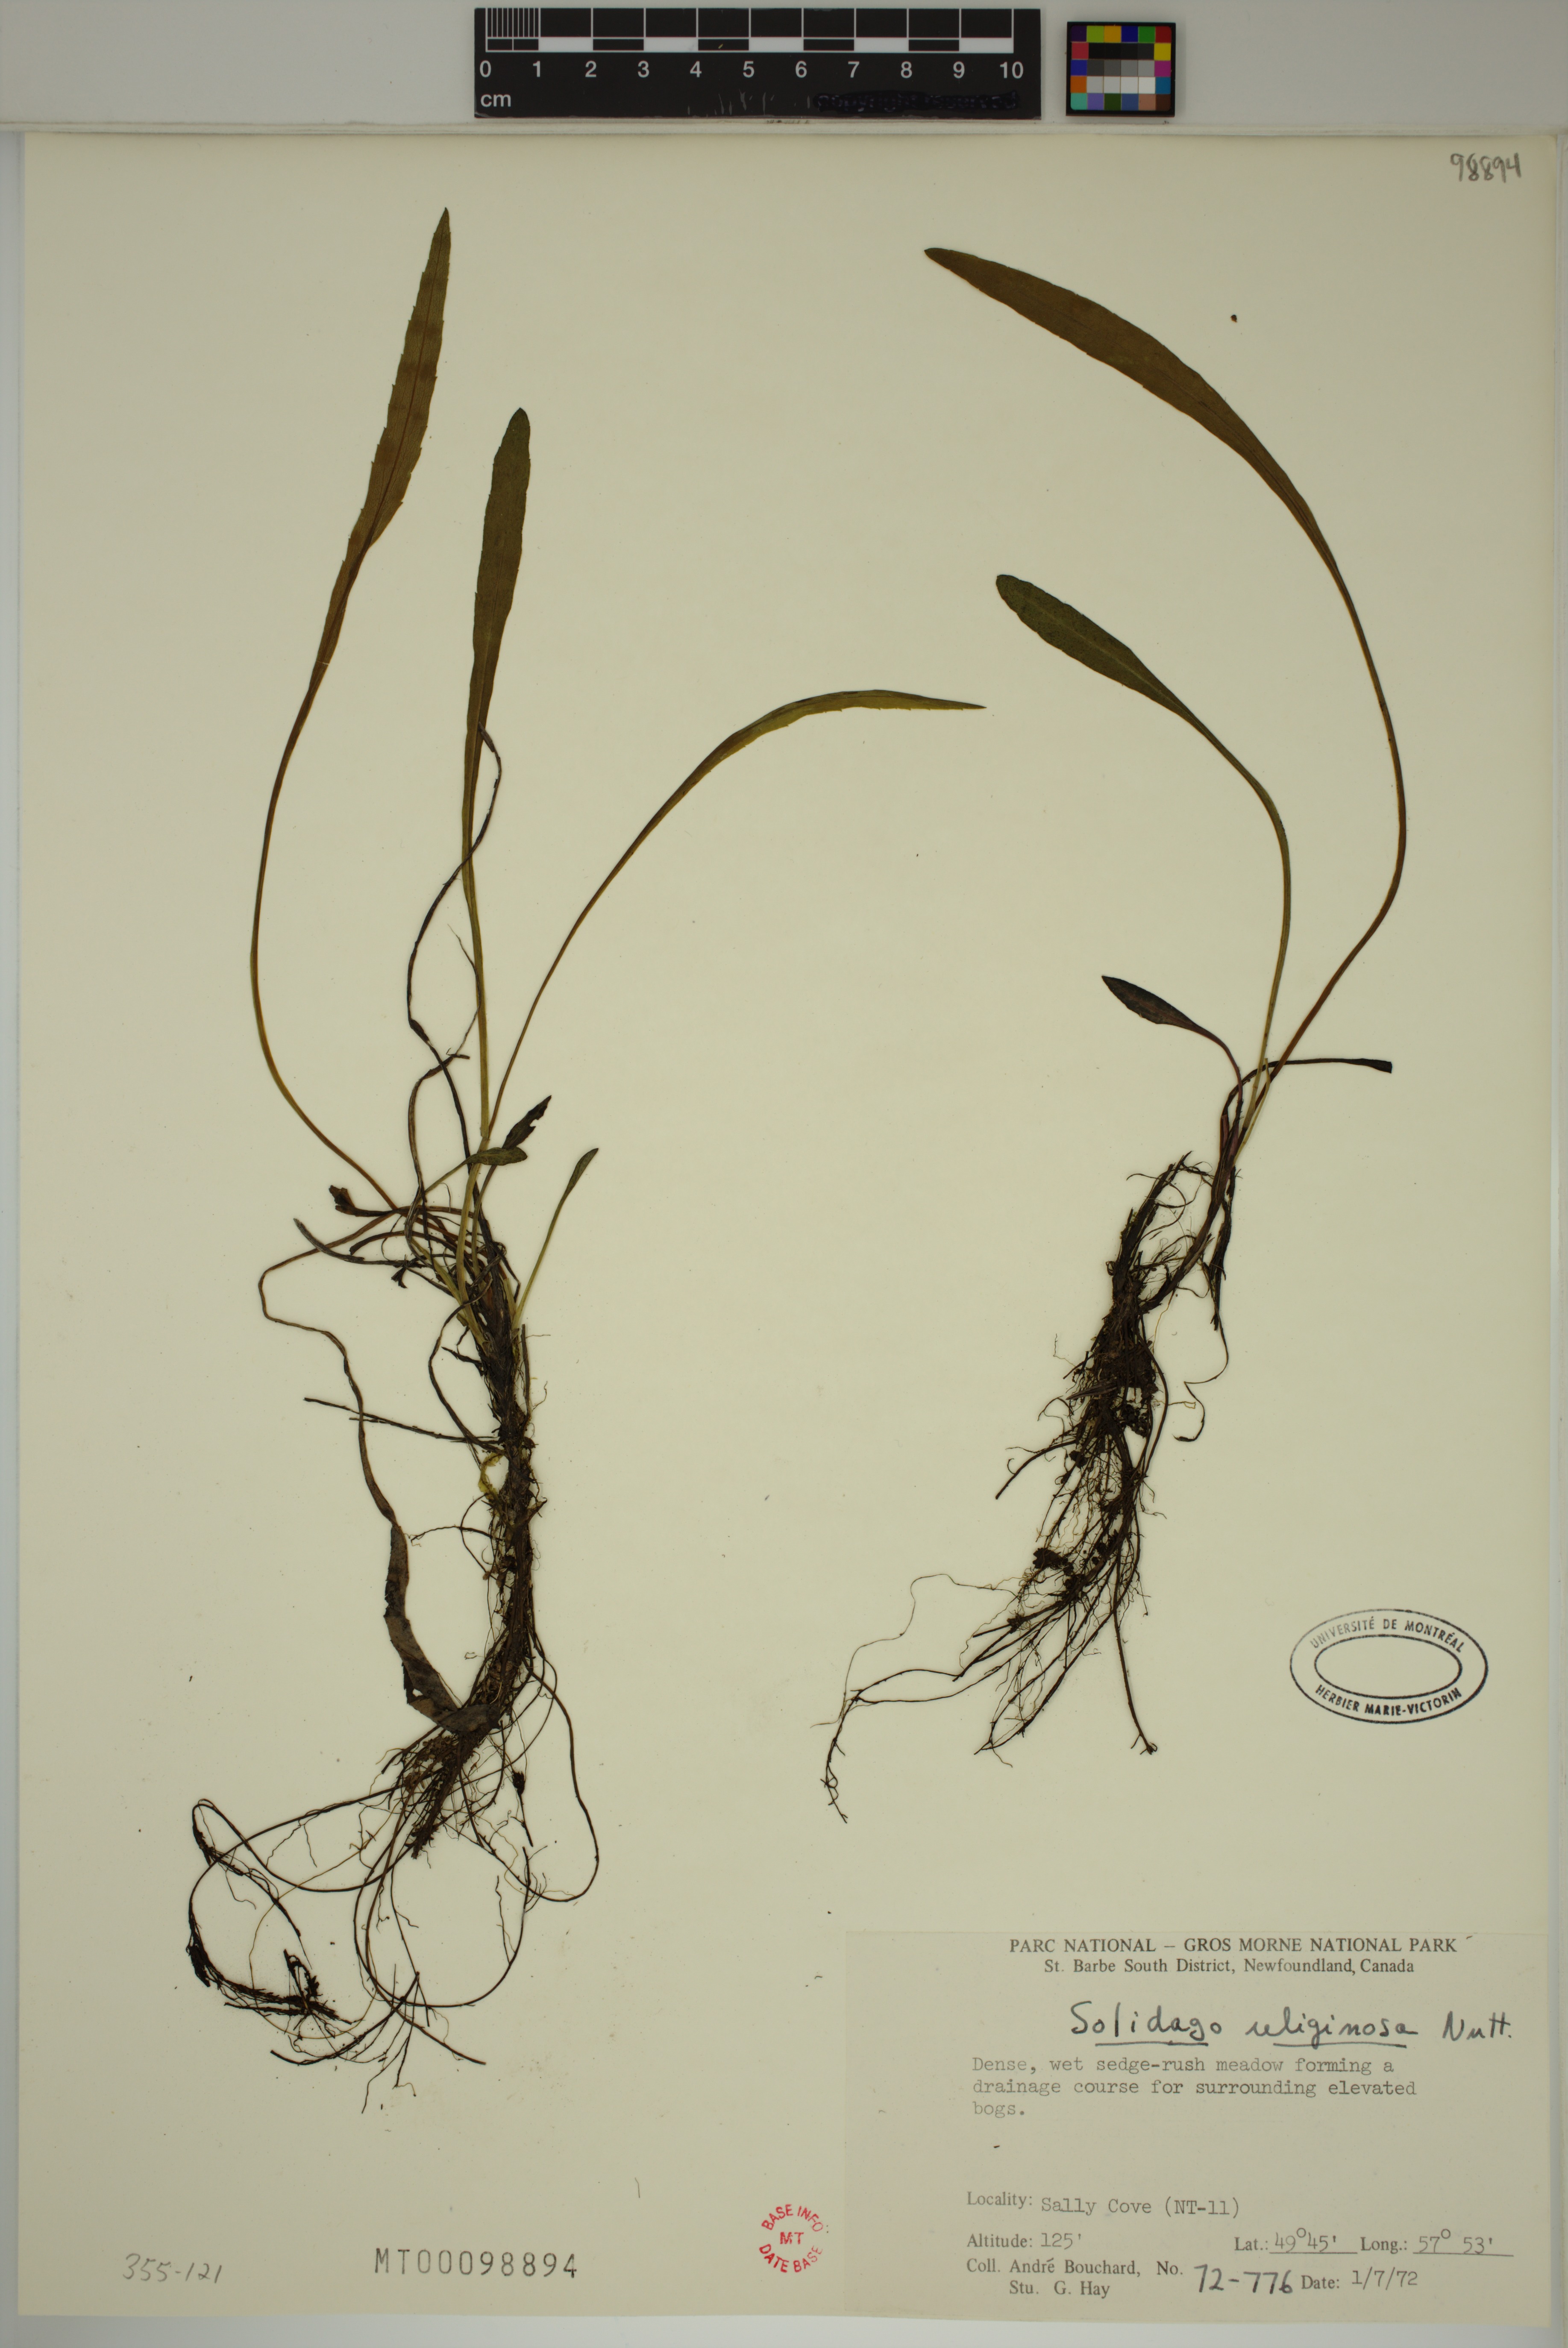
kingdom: Plantae
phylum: Tracheophyta
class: Magnoliopsida
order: Asterales
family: Asteraceae
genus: Solidago
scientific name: Solidago uliginosa
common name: Bog goldenrod
